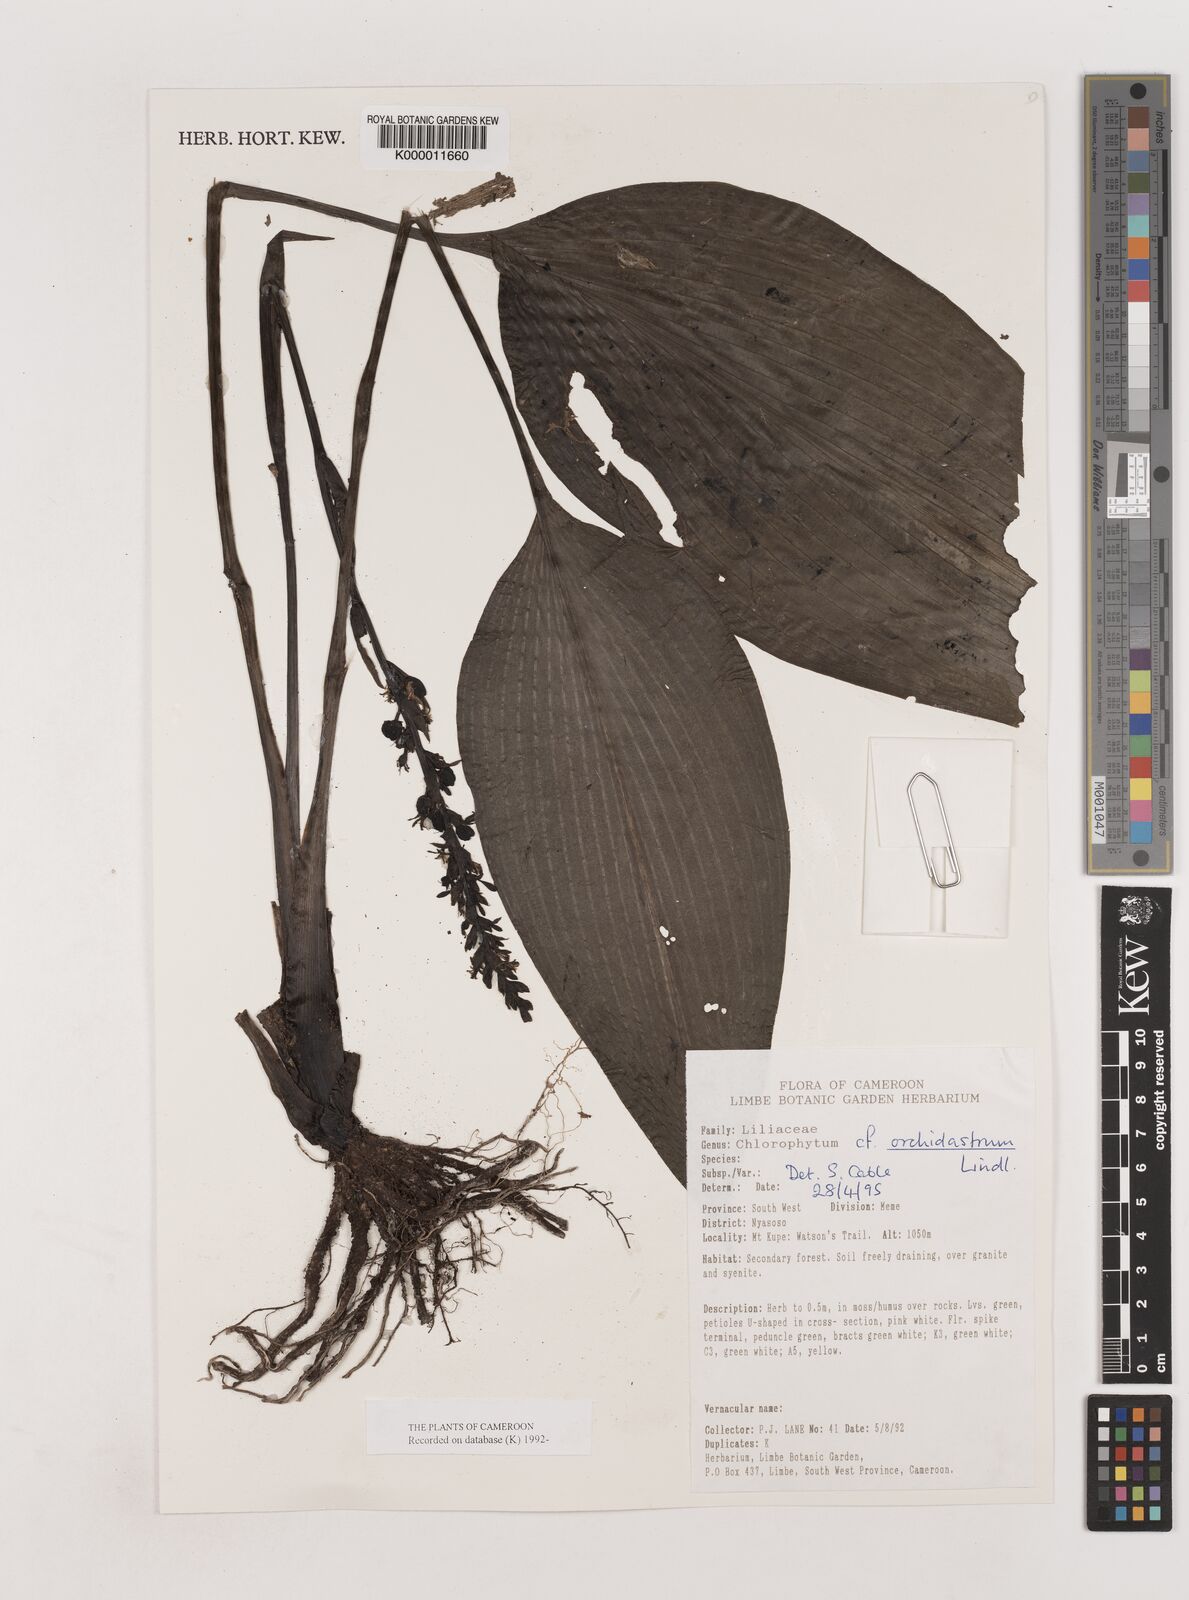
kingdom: Plantae
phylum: Tracheophyta
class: Liliopsida
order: Asparagales
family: Asparagaceae
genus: Chlorophytum
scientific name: Chlorophytum orchidastrum
